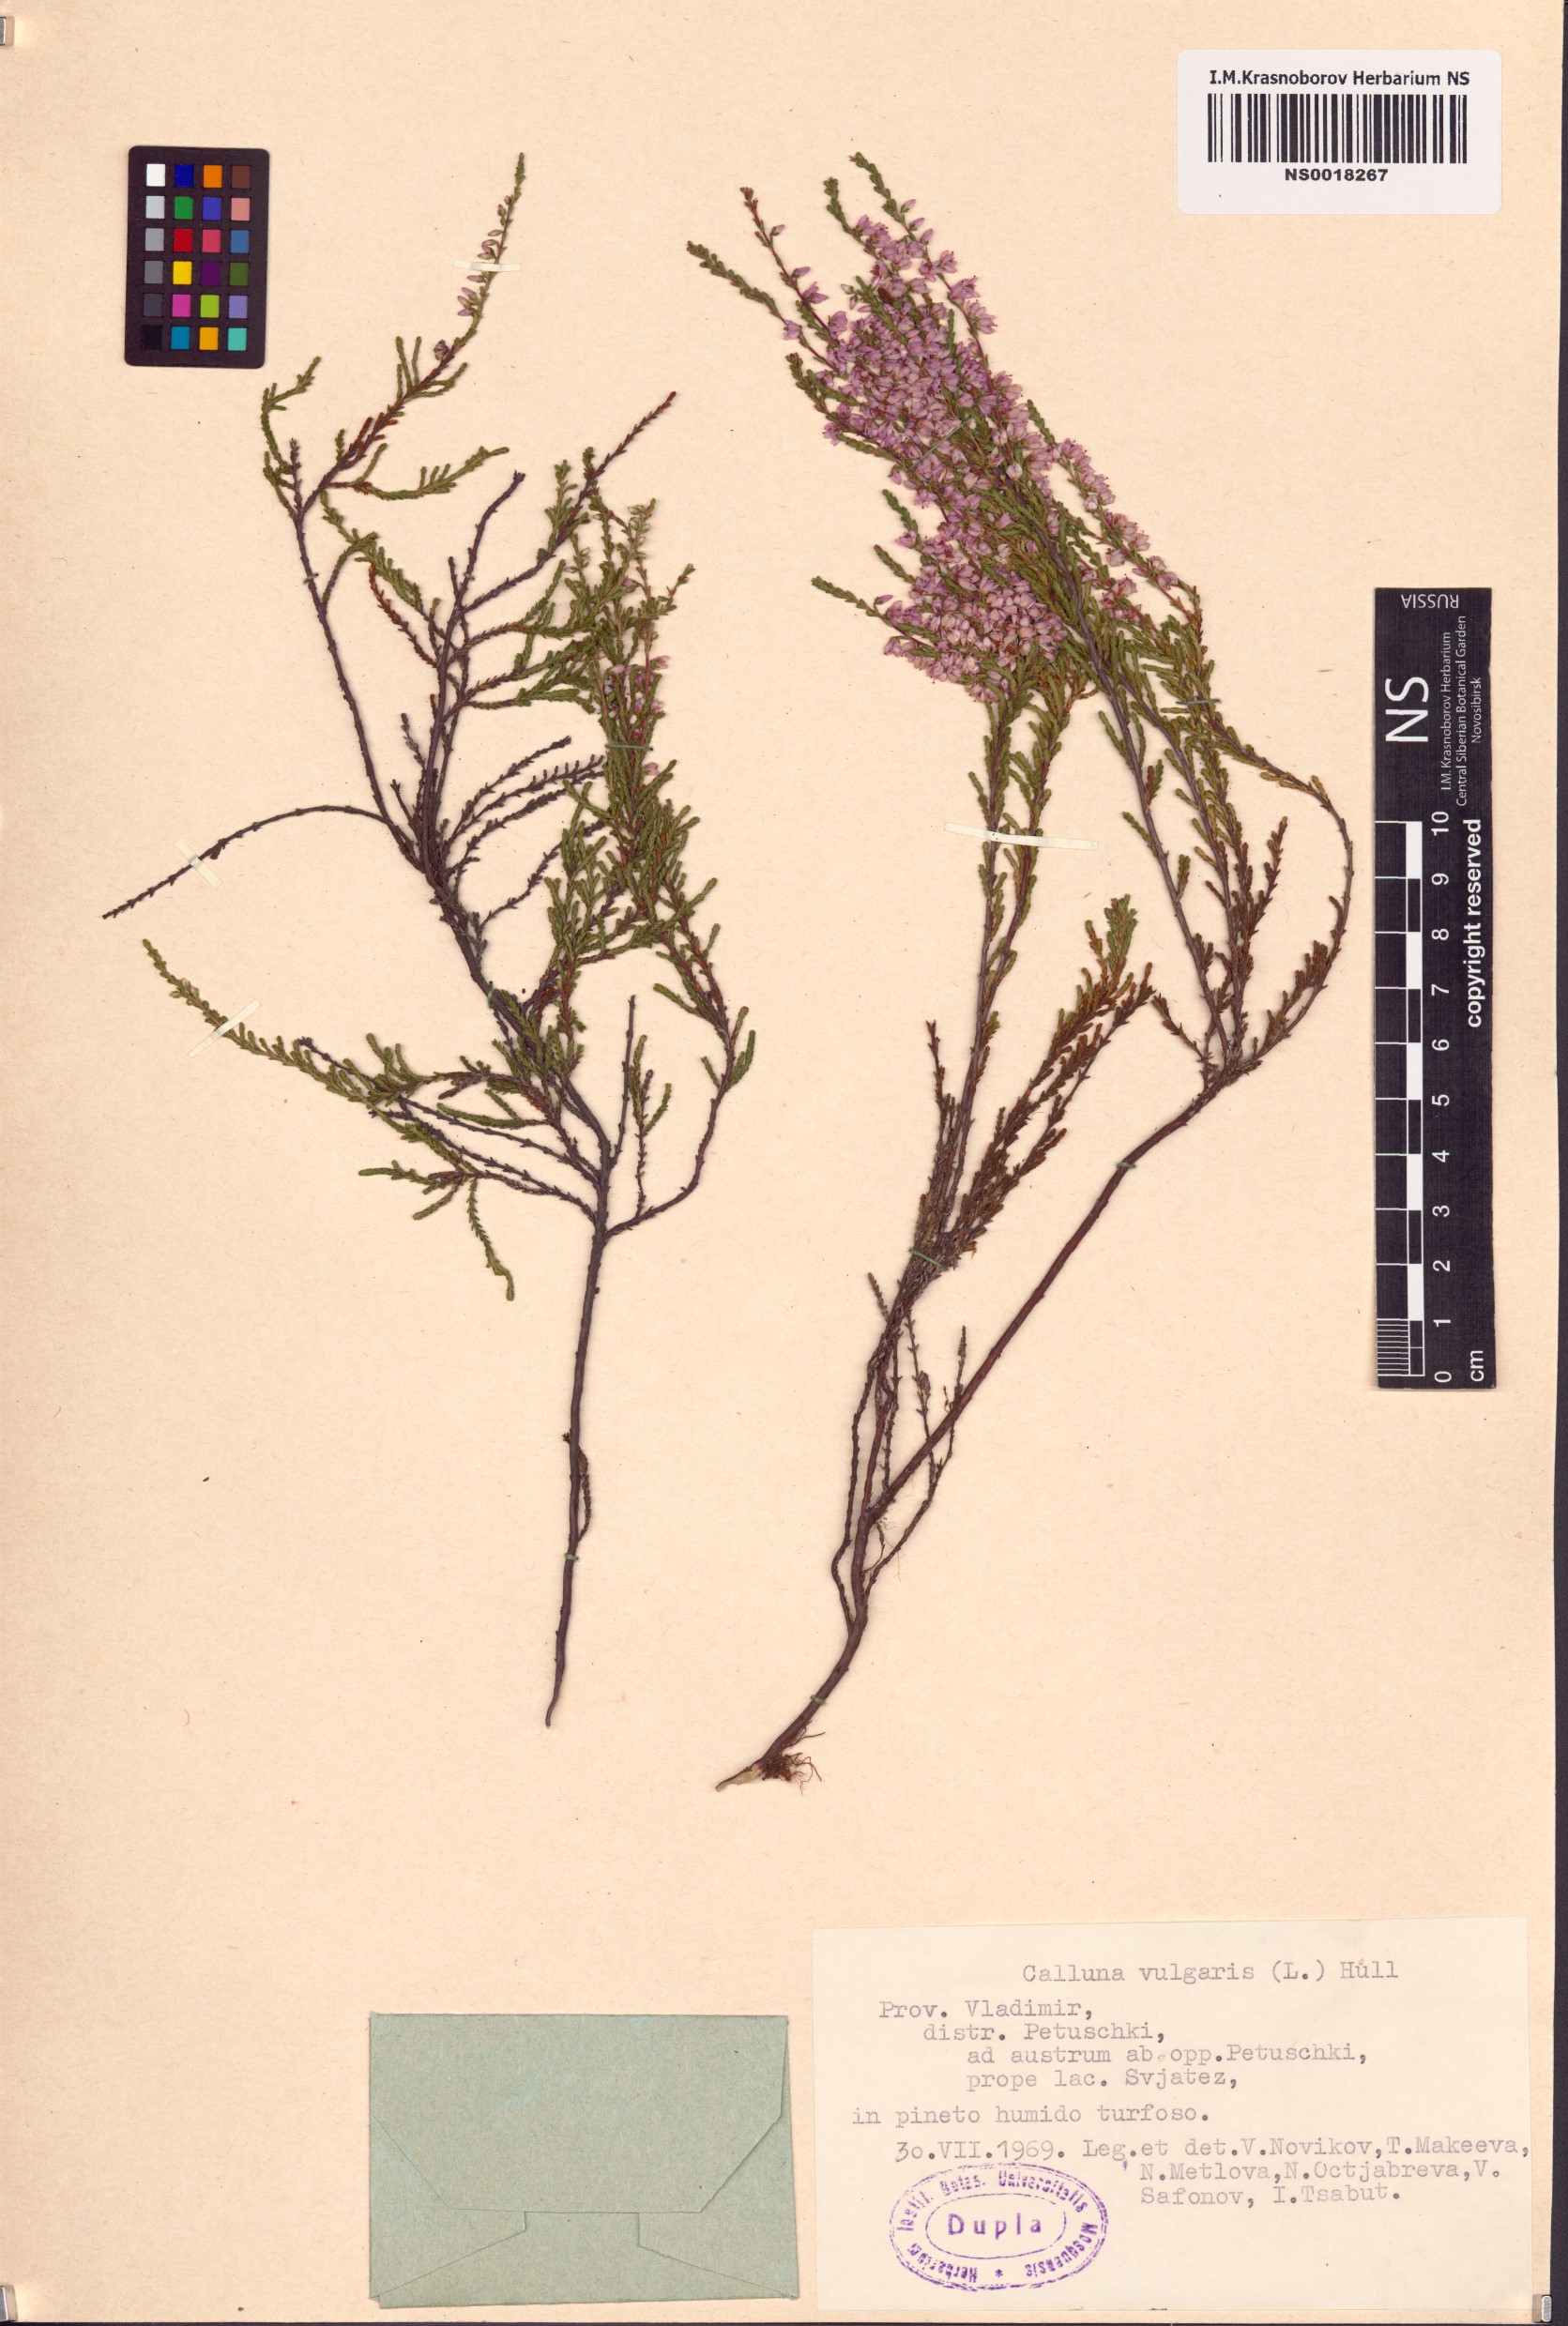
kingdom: Plantae
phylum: Tracheophyta
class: Magnoliopsida
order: Ericales
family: Ericaceae
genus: Calluna
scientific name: Calluna vulgaris
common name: Heather
